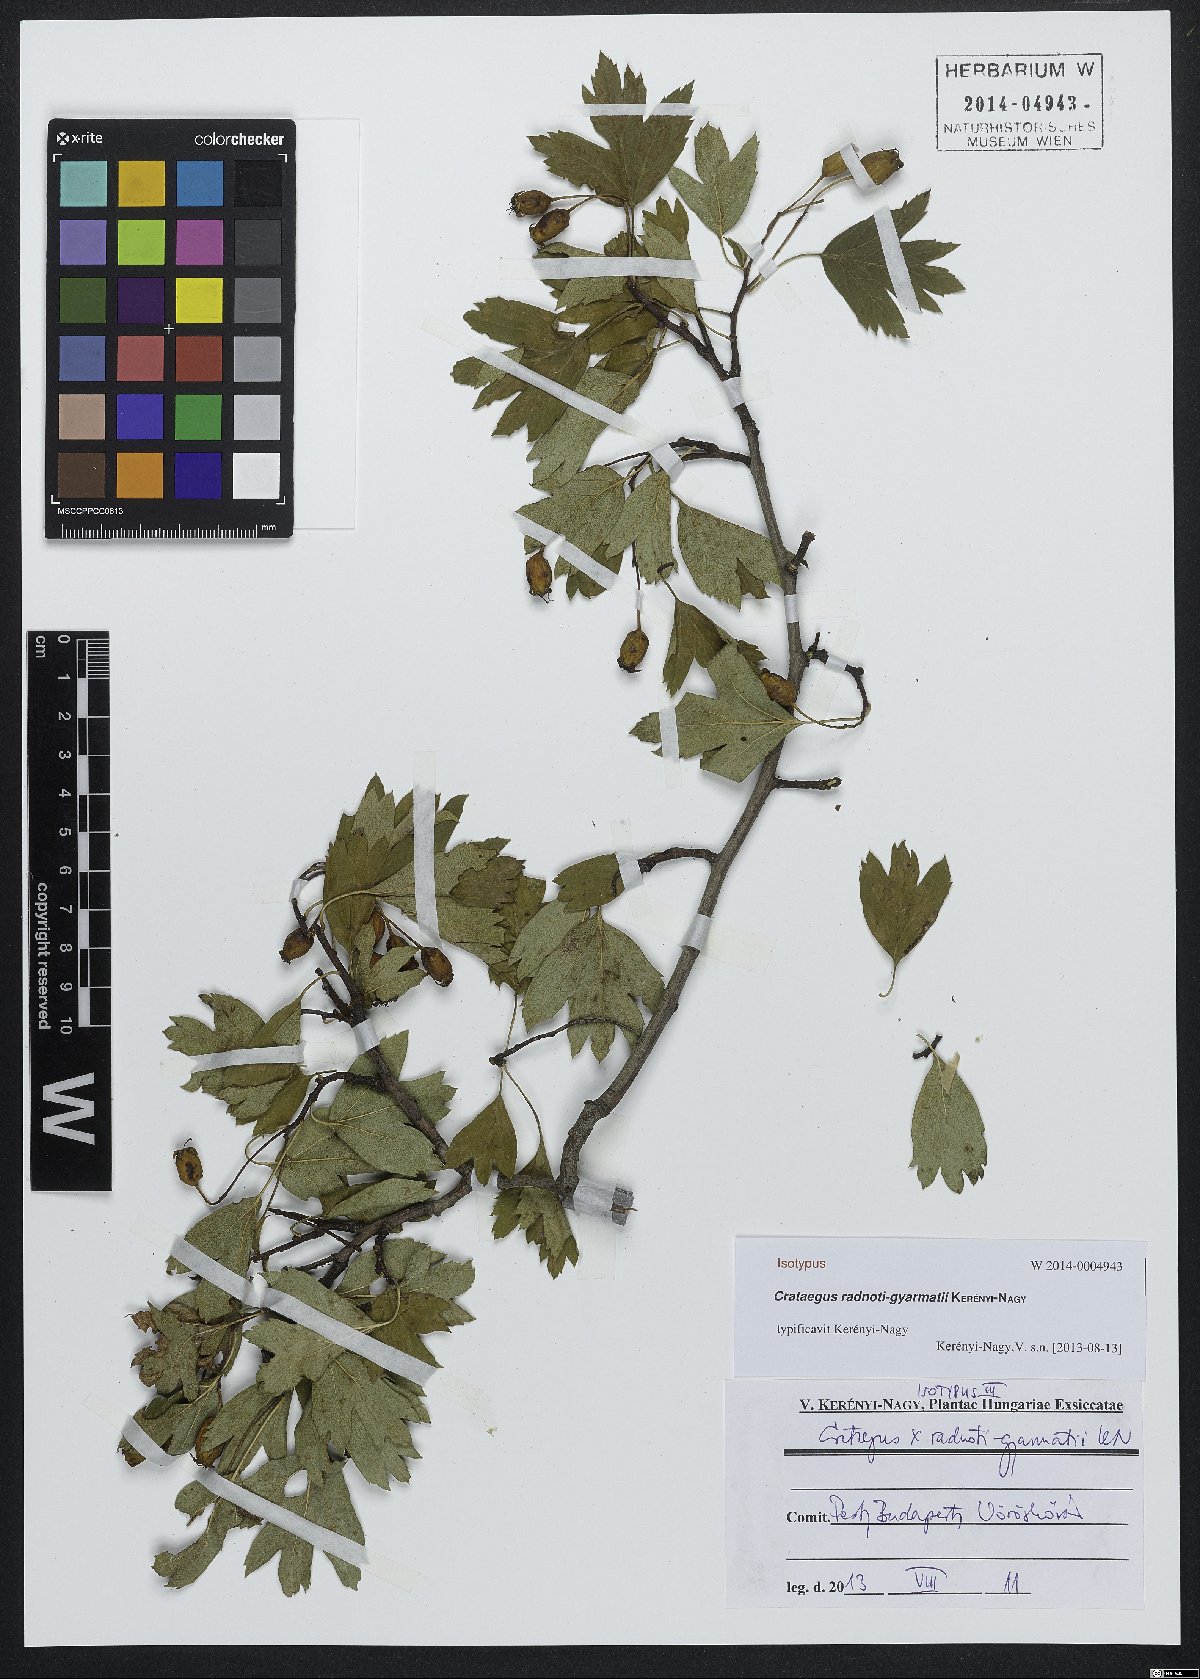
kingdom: Plantae
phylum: Tracheophyta
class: Magnoliopsida
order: Rosales
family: Rosaceae
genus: Crataegus
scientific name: Crataegus radnoti-gyarmatii
